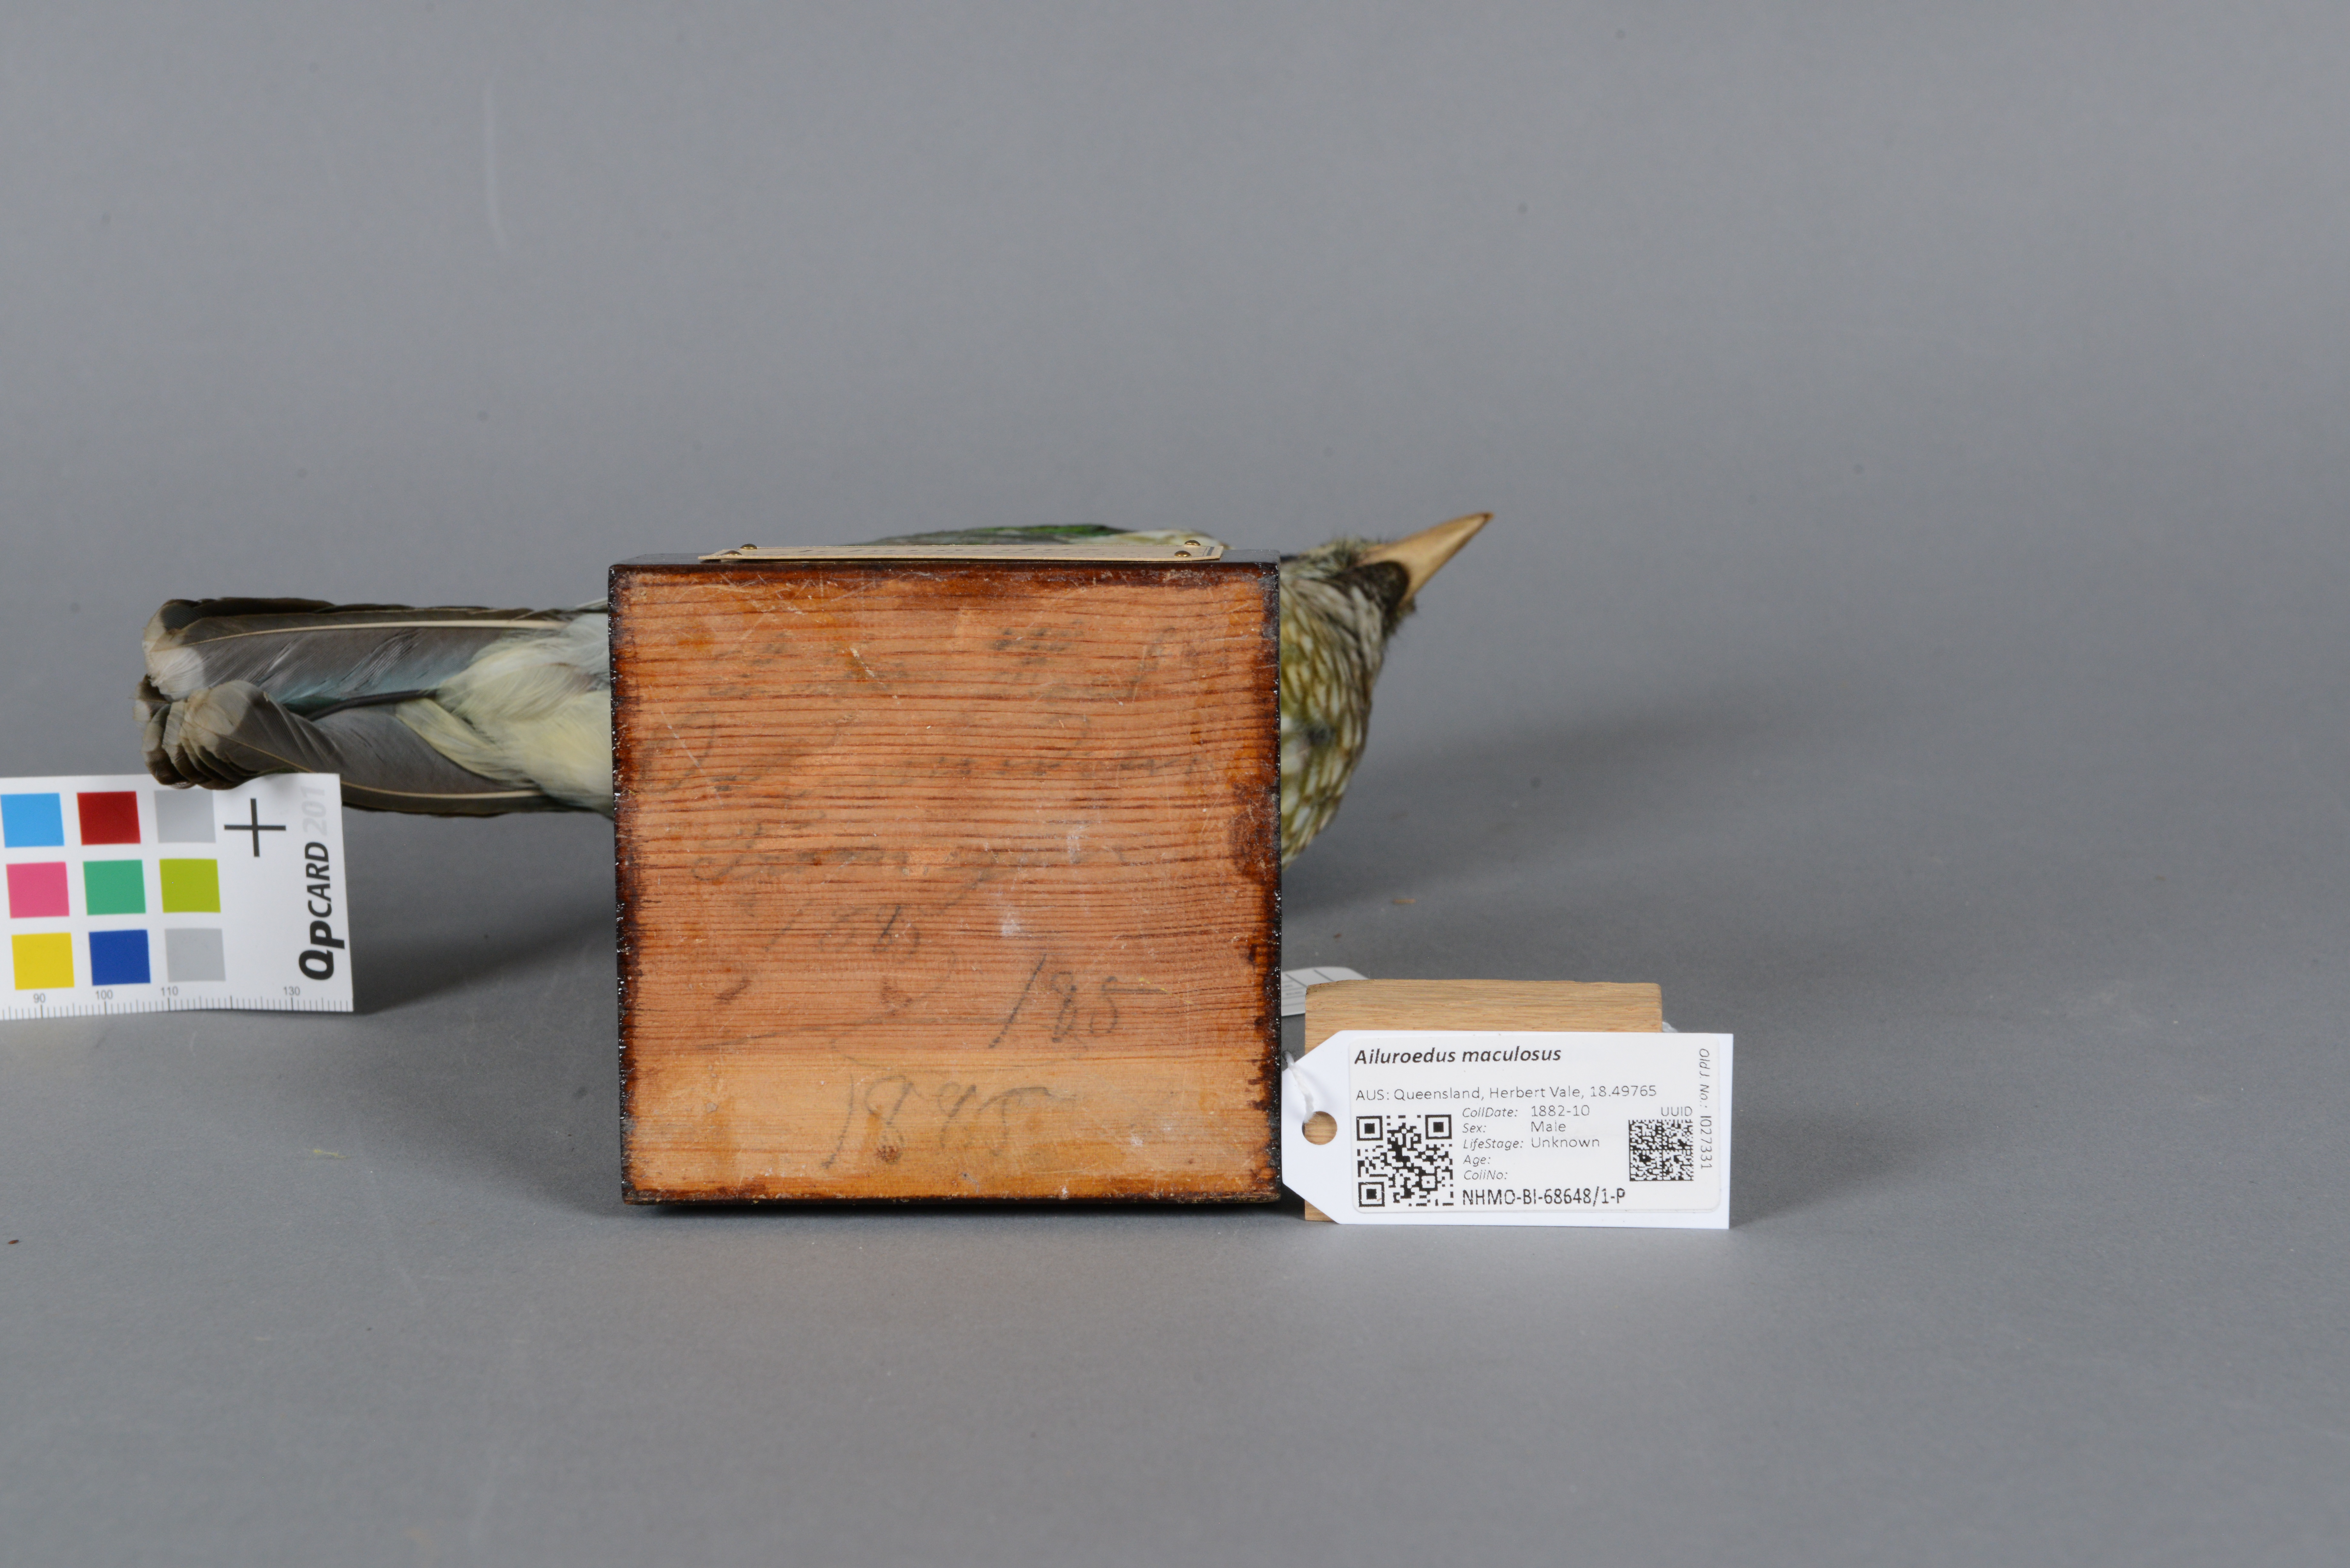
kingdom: Animalia
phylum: Chordata
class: Aves
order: Passeriformes
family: Ptilonorhynchidae
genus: Ailuroedus
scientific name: Ailuroedus maculosus
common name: Spotted catbird
